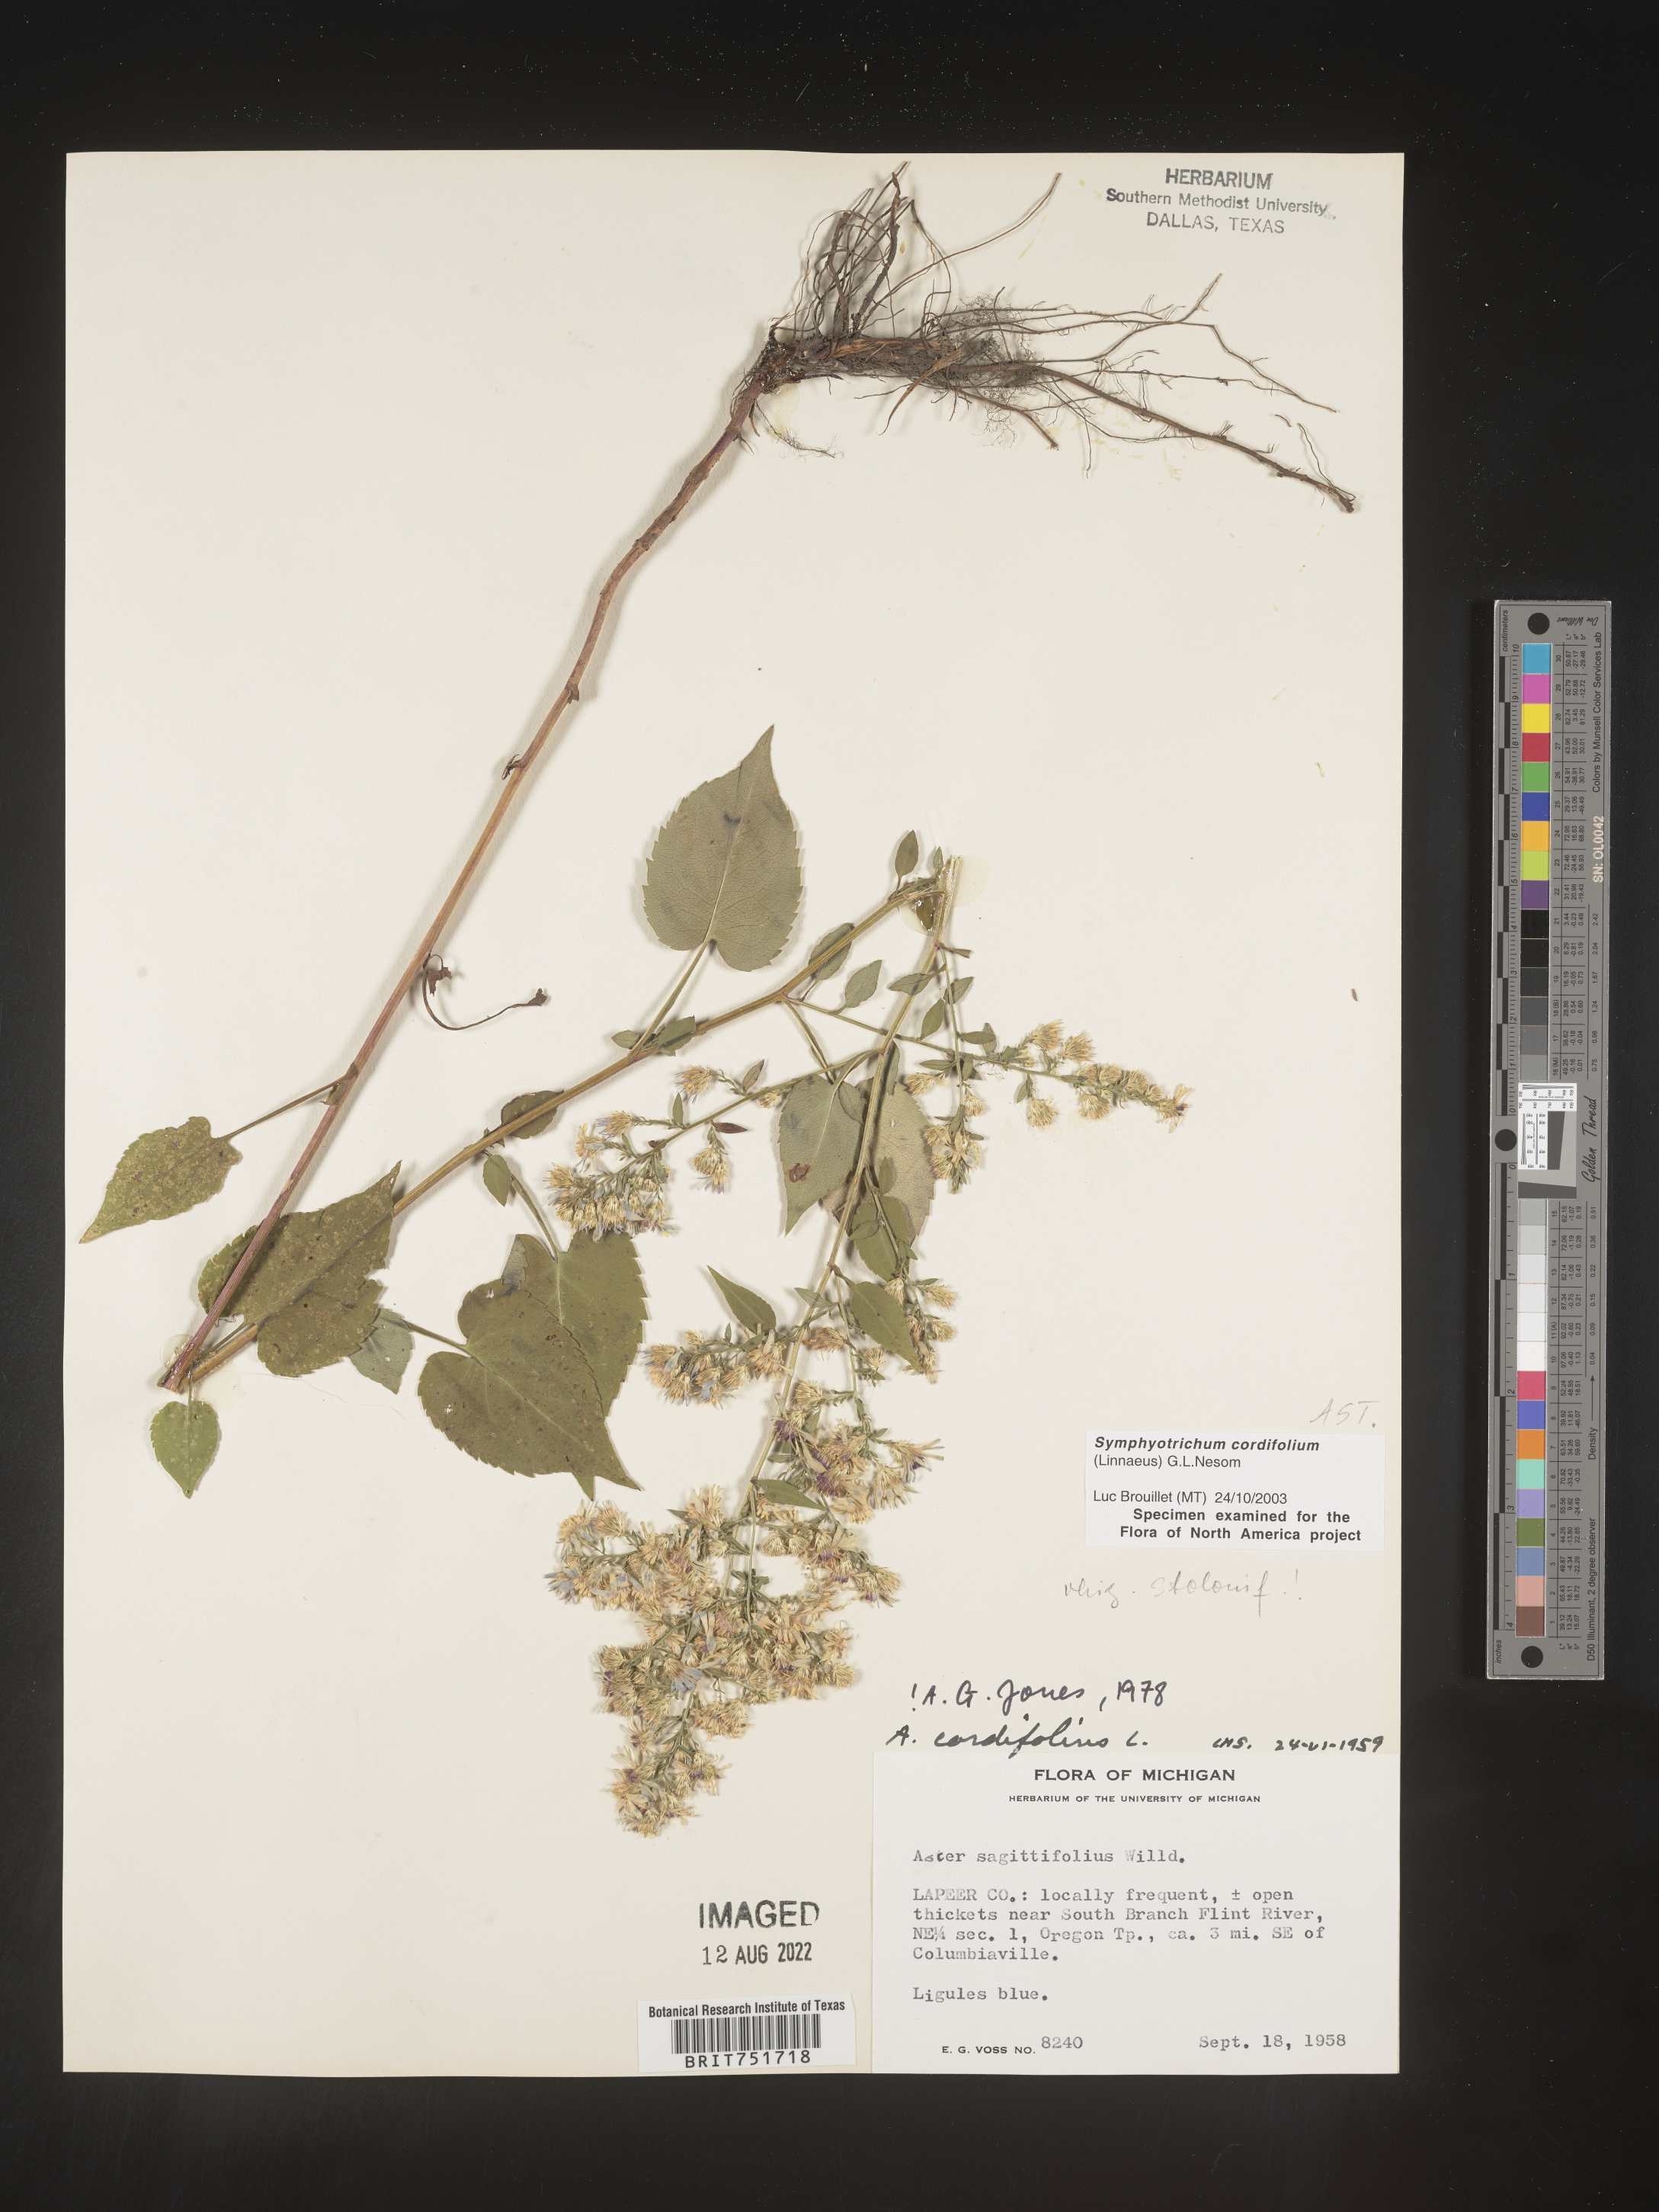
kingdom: Plantae
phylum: Tracheophyta
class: Magnoliopsida
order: Asterales
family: Asteraceae
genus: Symphyotrichum
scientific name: Symphyotrichum cordifolium
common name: Beeweed
